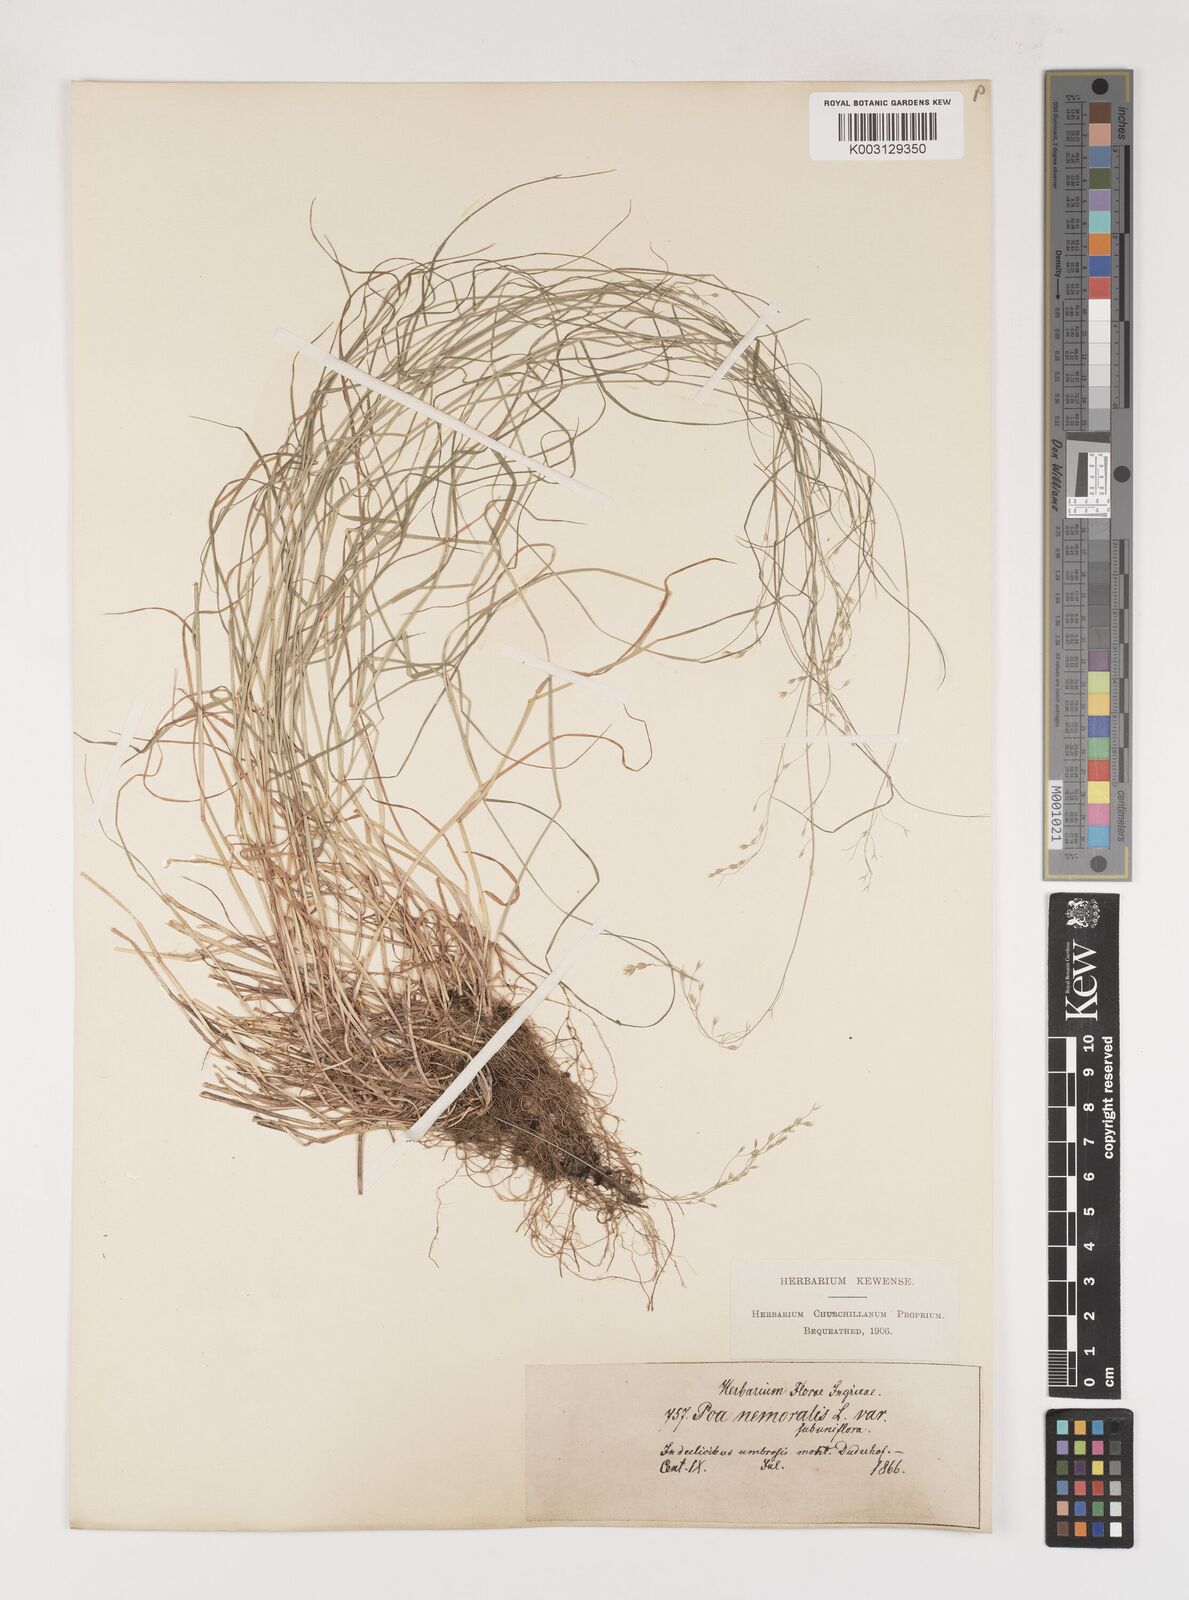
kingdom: Plantae
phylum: Tracheophyta
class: Liliopsida
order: Poales
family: Poaceae
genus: Poa
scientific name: Poa nemoralis
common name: Wood bluegrass
